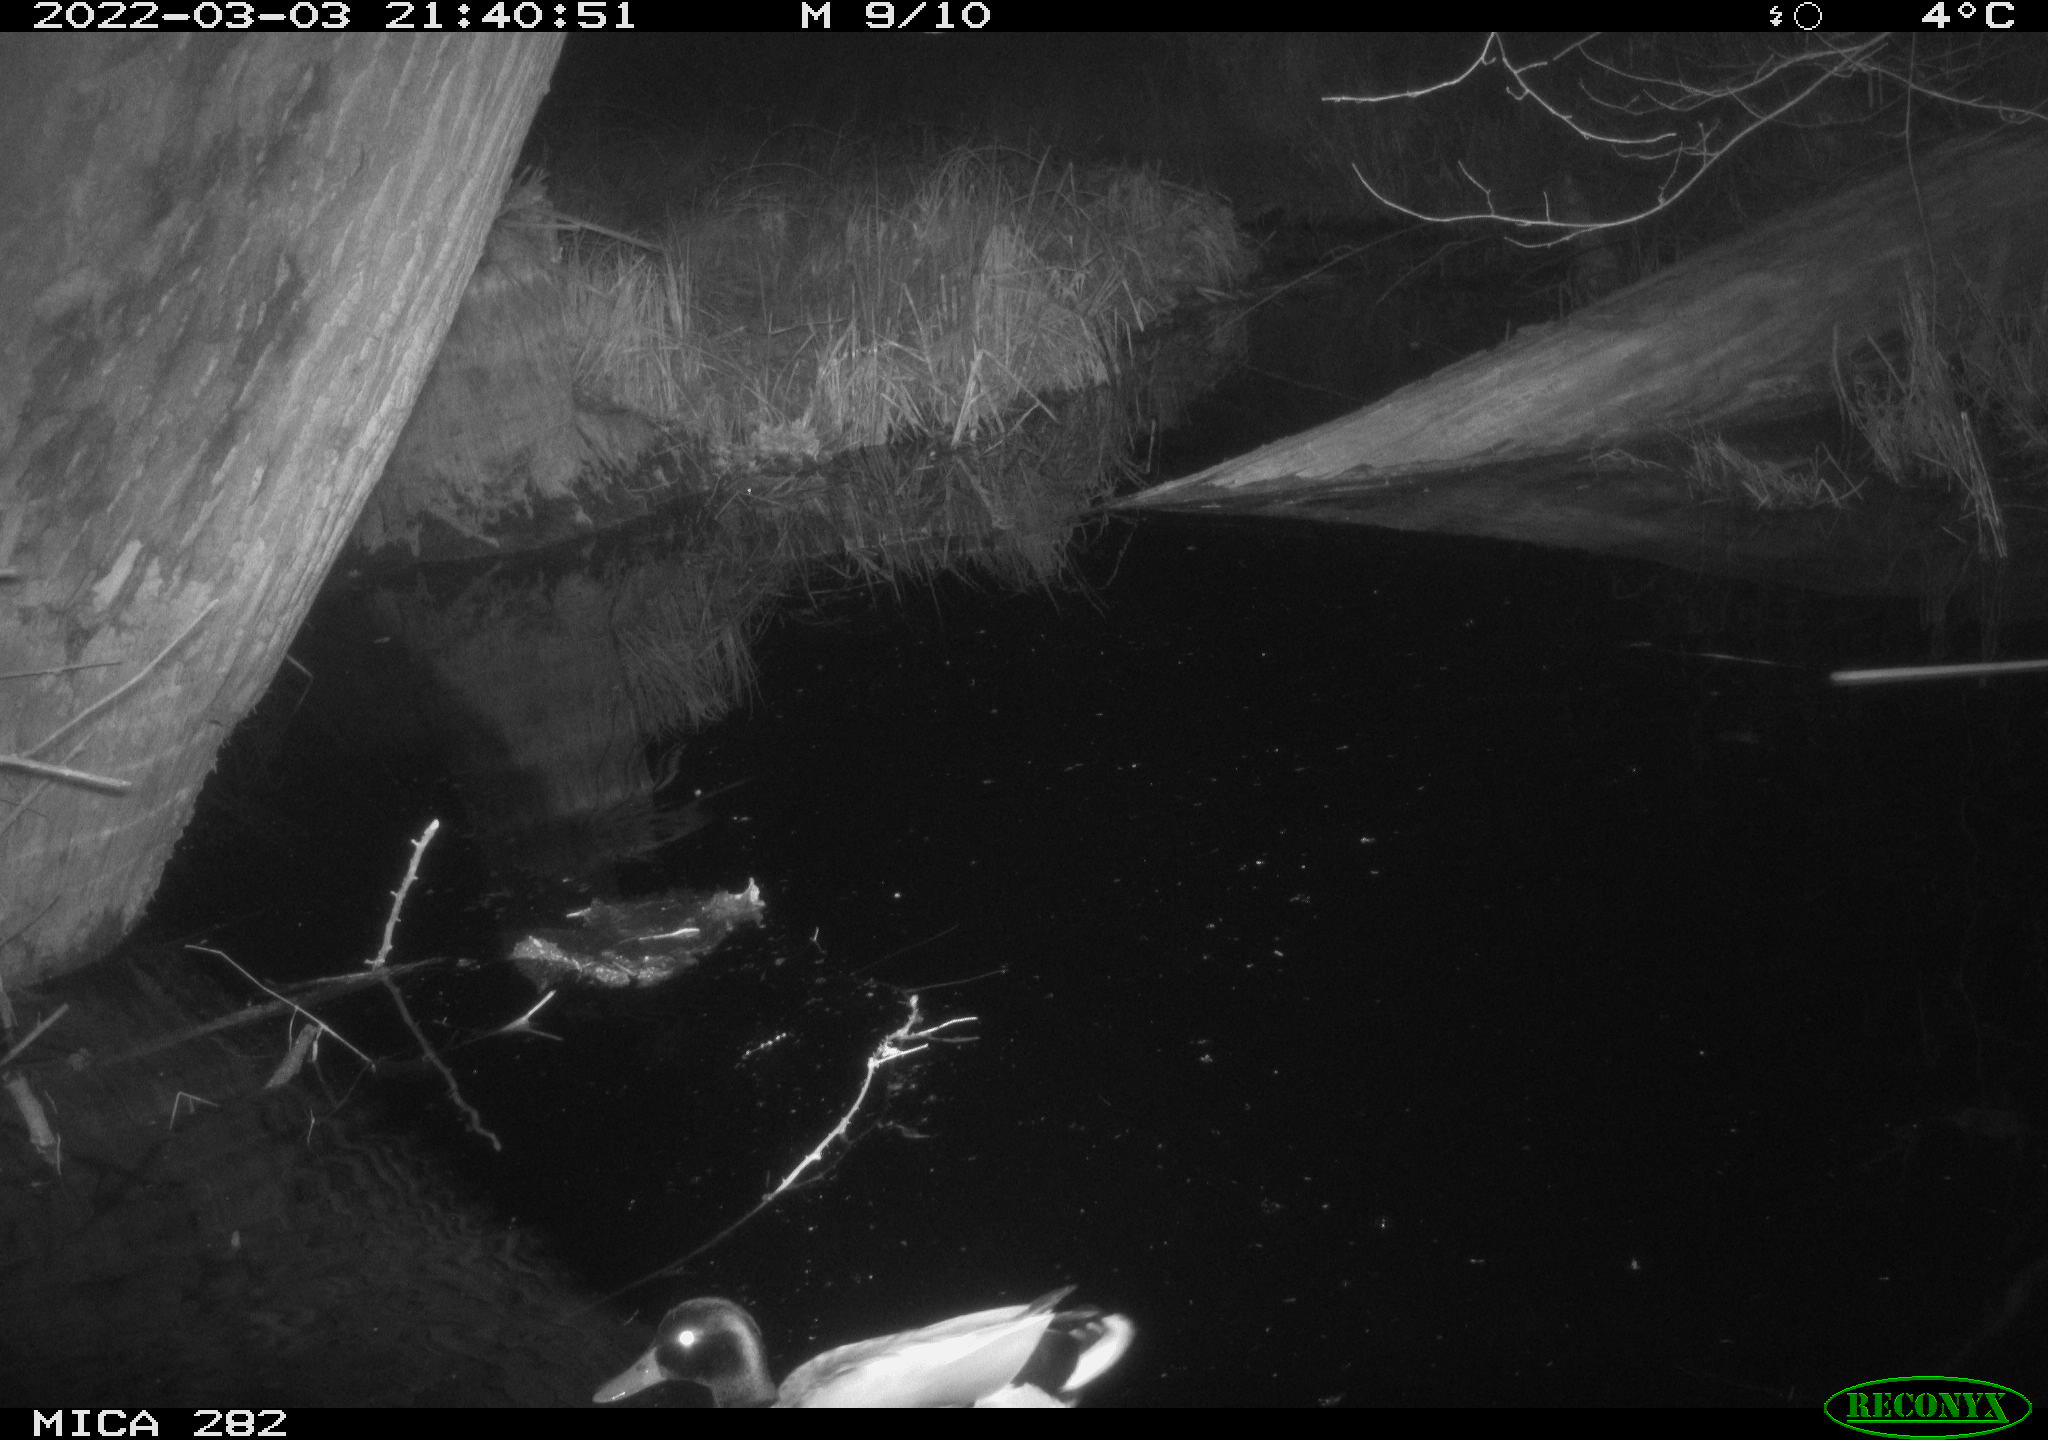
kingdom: Animalia
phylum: Chordata
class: Aves
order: Anseriformes
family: Anatidae
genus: Anas
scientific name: Anas platyrhynchos
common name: Mallard
